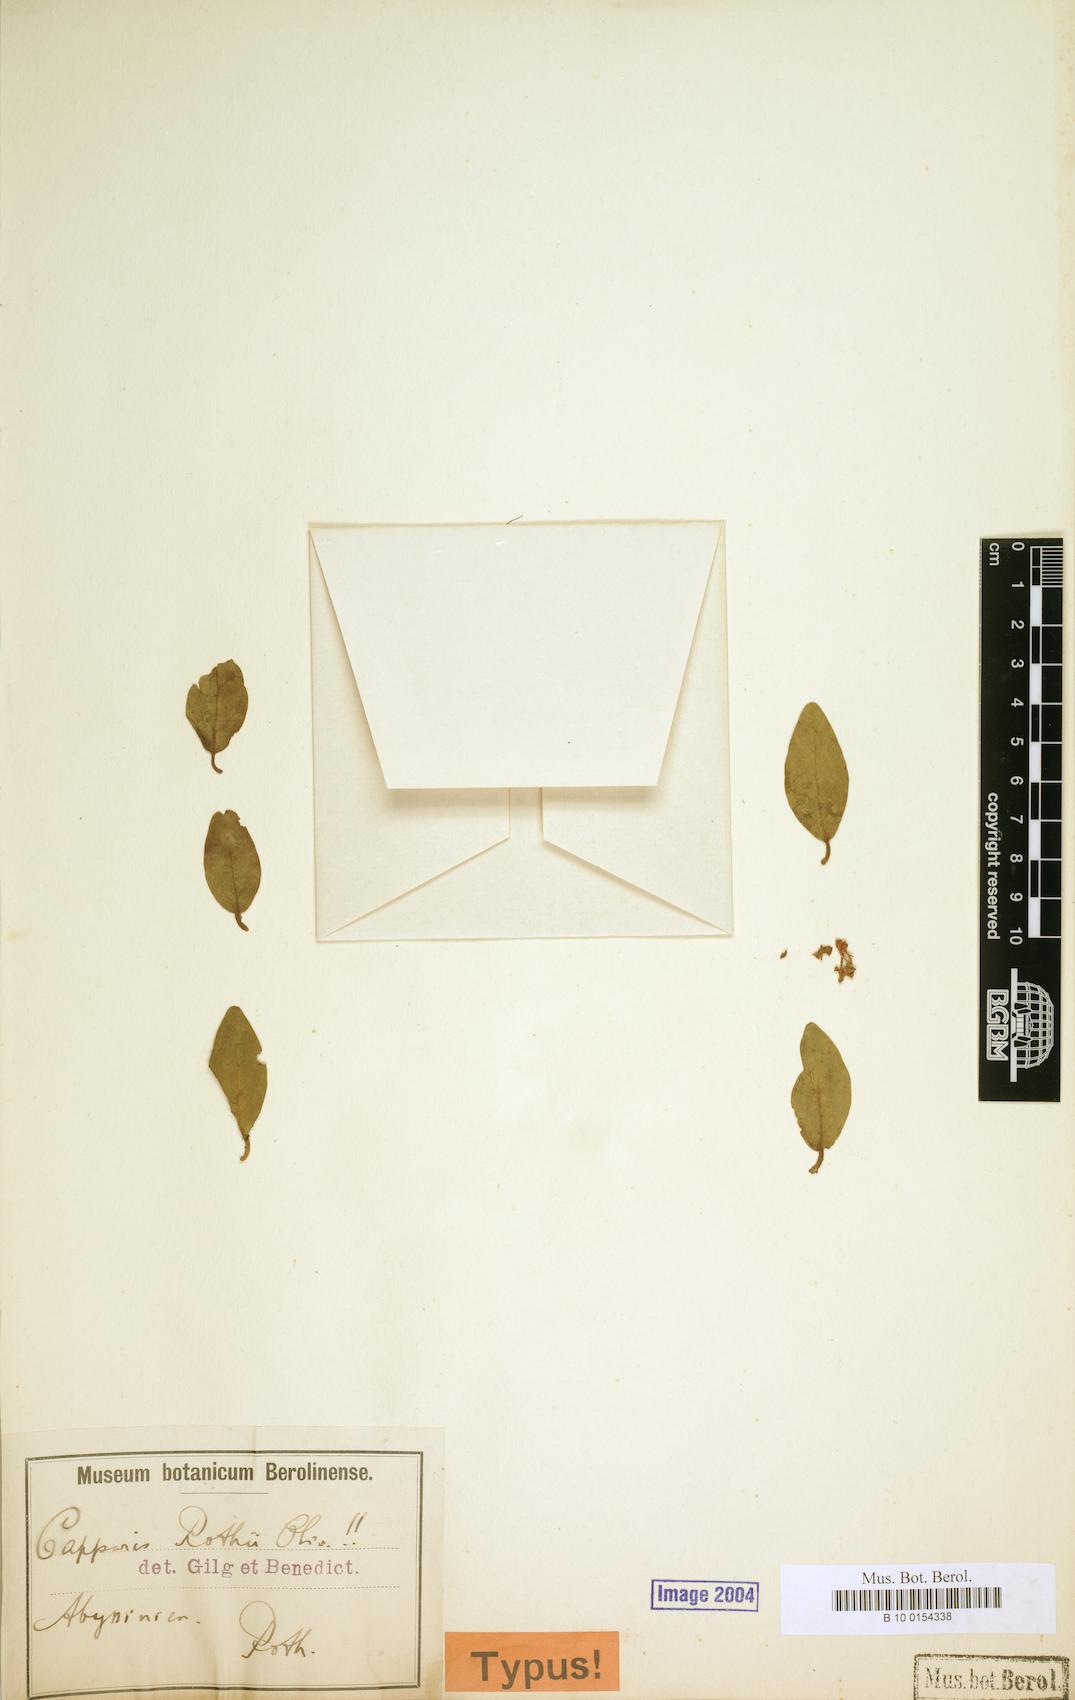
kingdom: Plantae
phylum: Tracheophyta
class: Magnoliopsida
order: Brassicales
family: Capparaceae
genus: Capparis
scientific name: Capparis fascicularis
